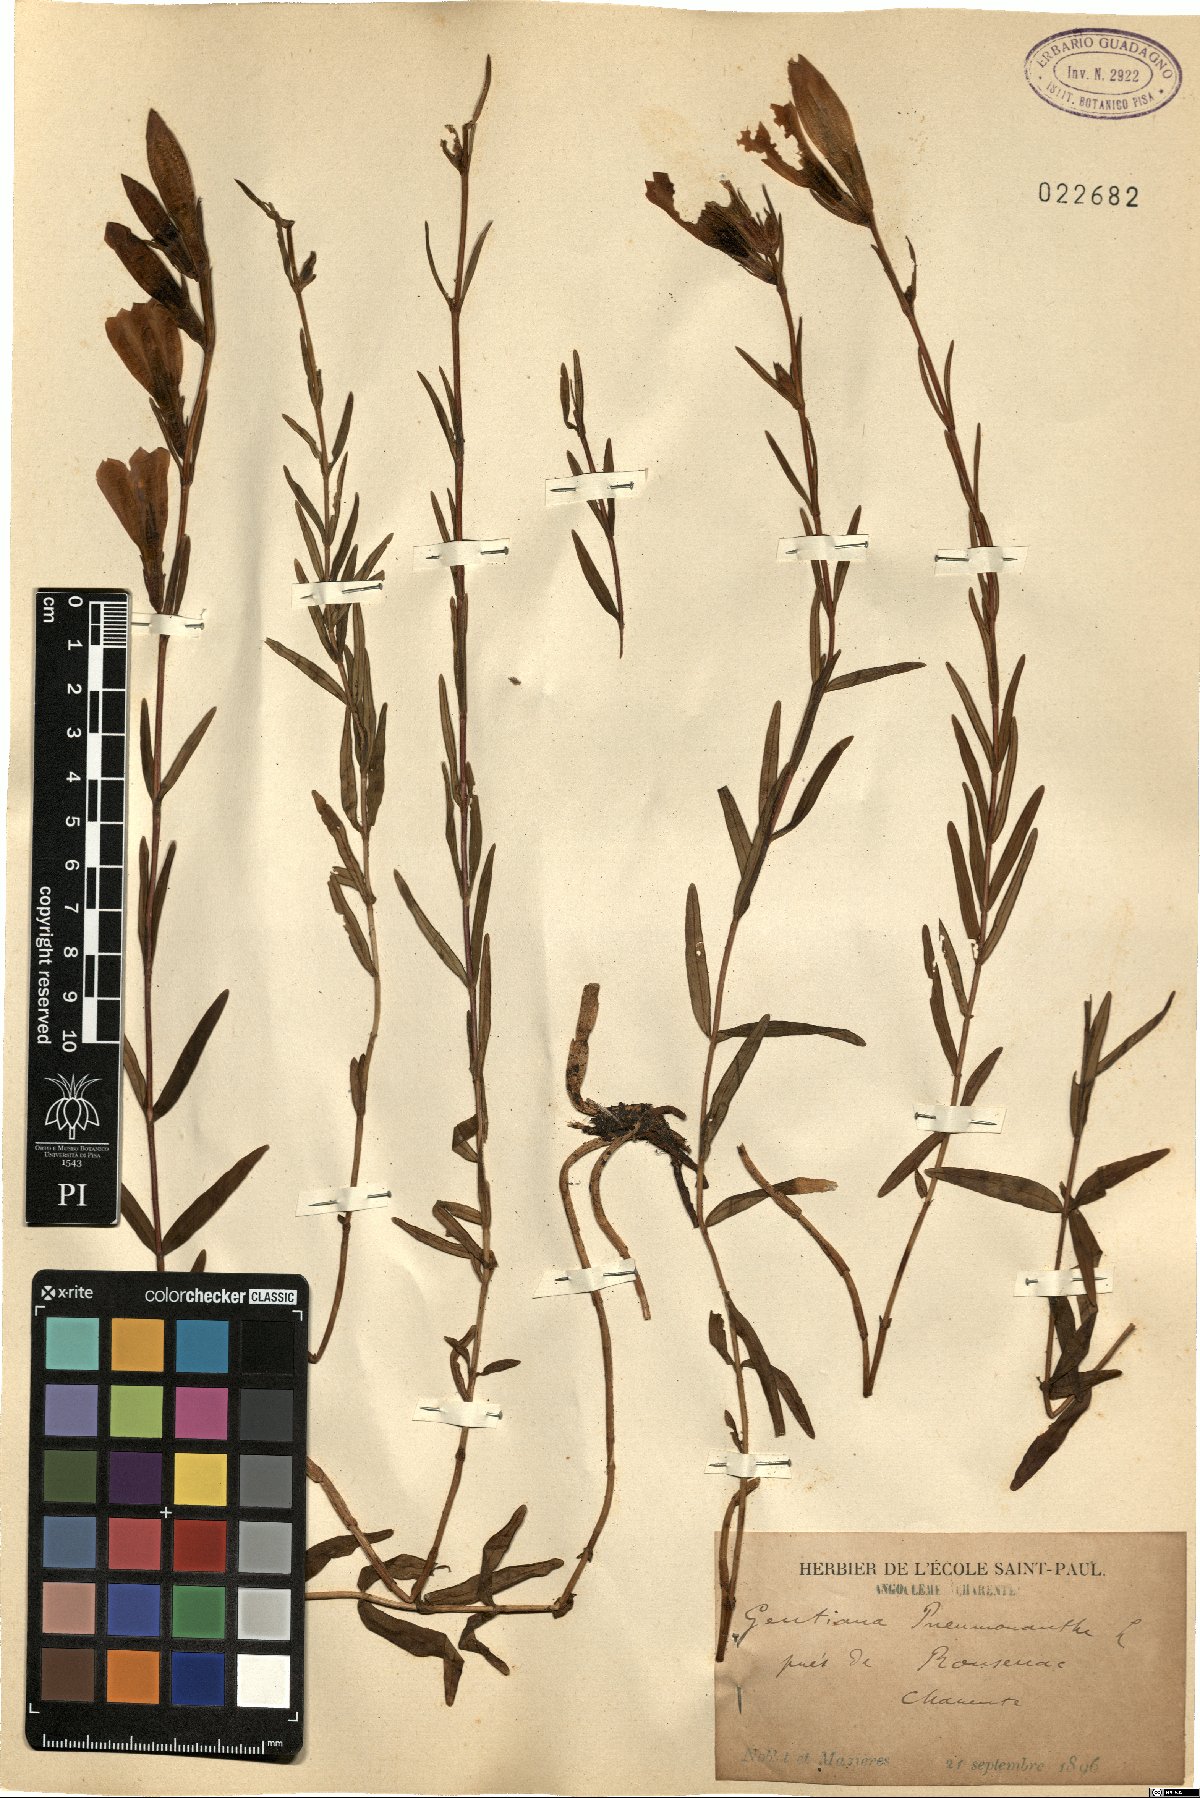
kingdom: Plantae
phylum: Tracheophyta
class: Magnoliopsida
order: Gentianales
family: Gentianaceae
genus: Gentiana
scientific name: Gentiana pneumonanthe
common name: Marsh gentian
